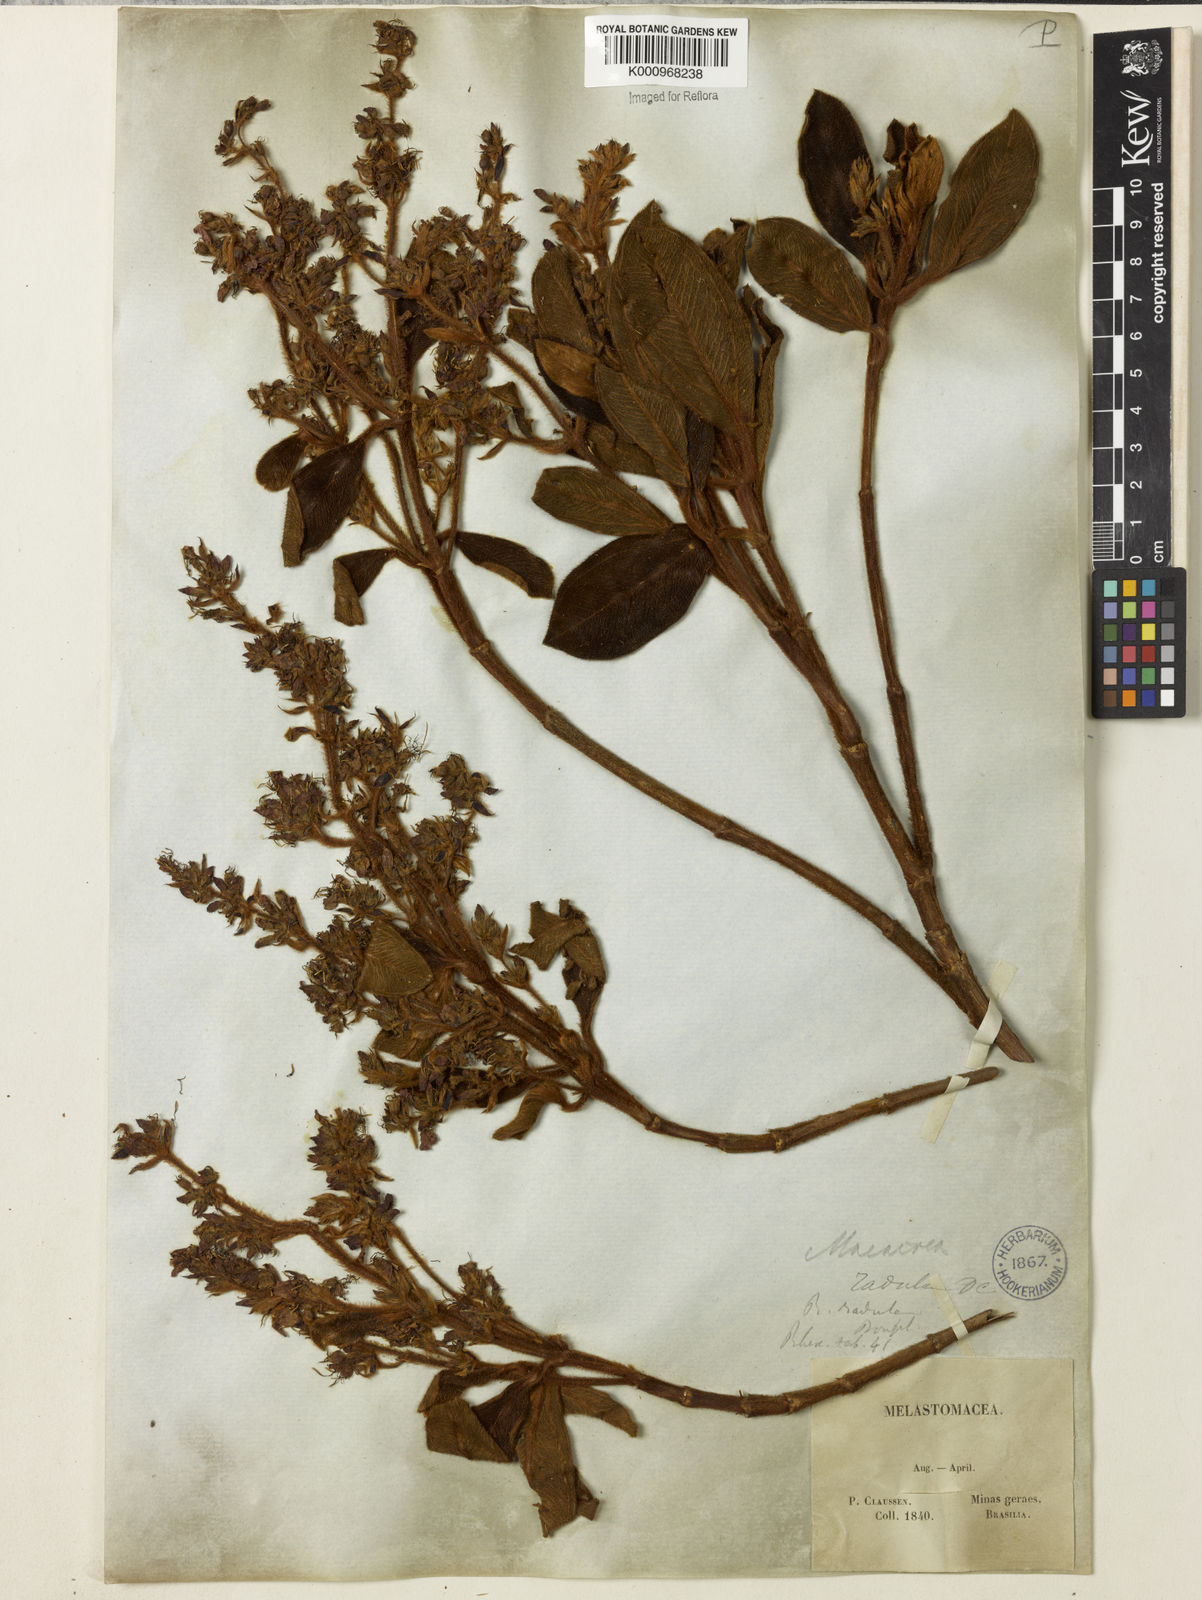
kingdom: Plantae
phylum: Tracheophyta
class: Magnoliopsida
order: Myrtales
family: Melastomataceae
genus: Macairea
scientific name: Macairea radula
